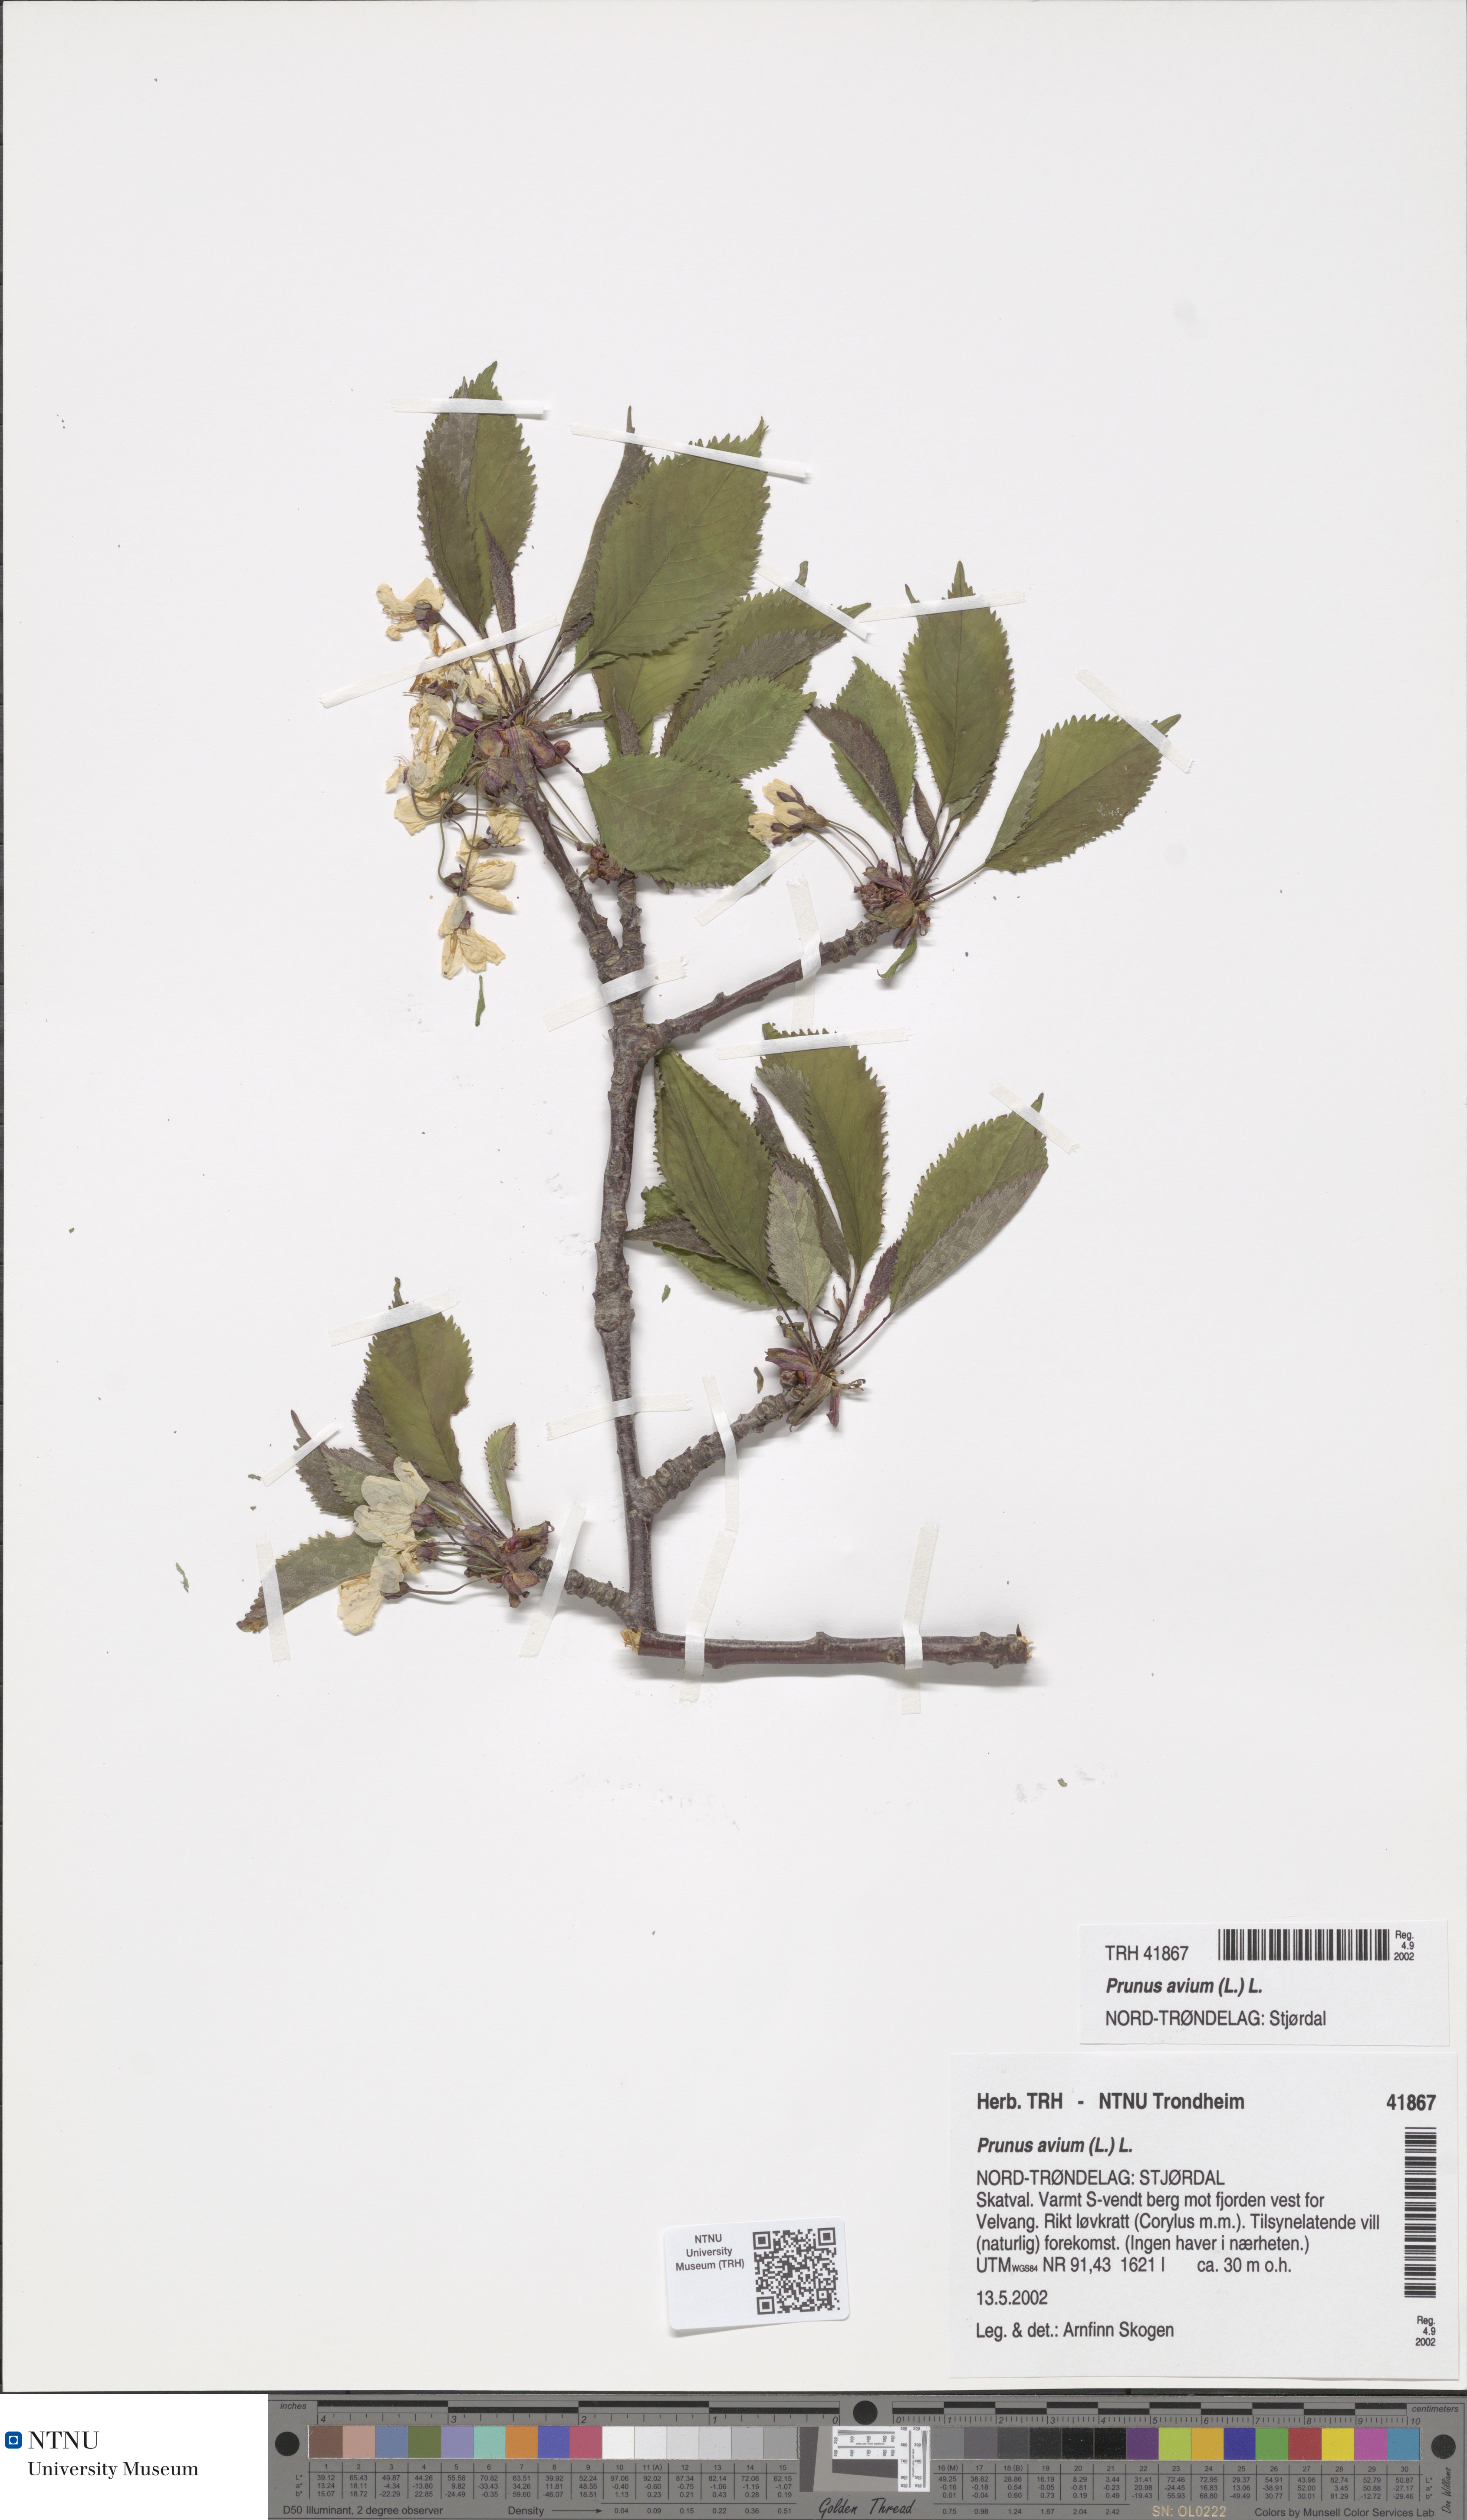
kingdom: Plantae
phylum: Tracheophyta
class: Magnoliopsida
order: Rosales
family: Rosaceae
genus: Prunus
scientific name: Prunus avium
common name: Sweet cherry
